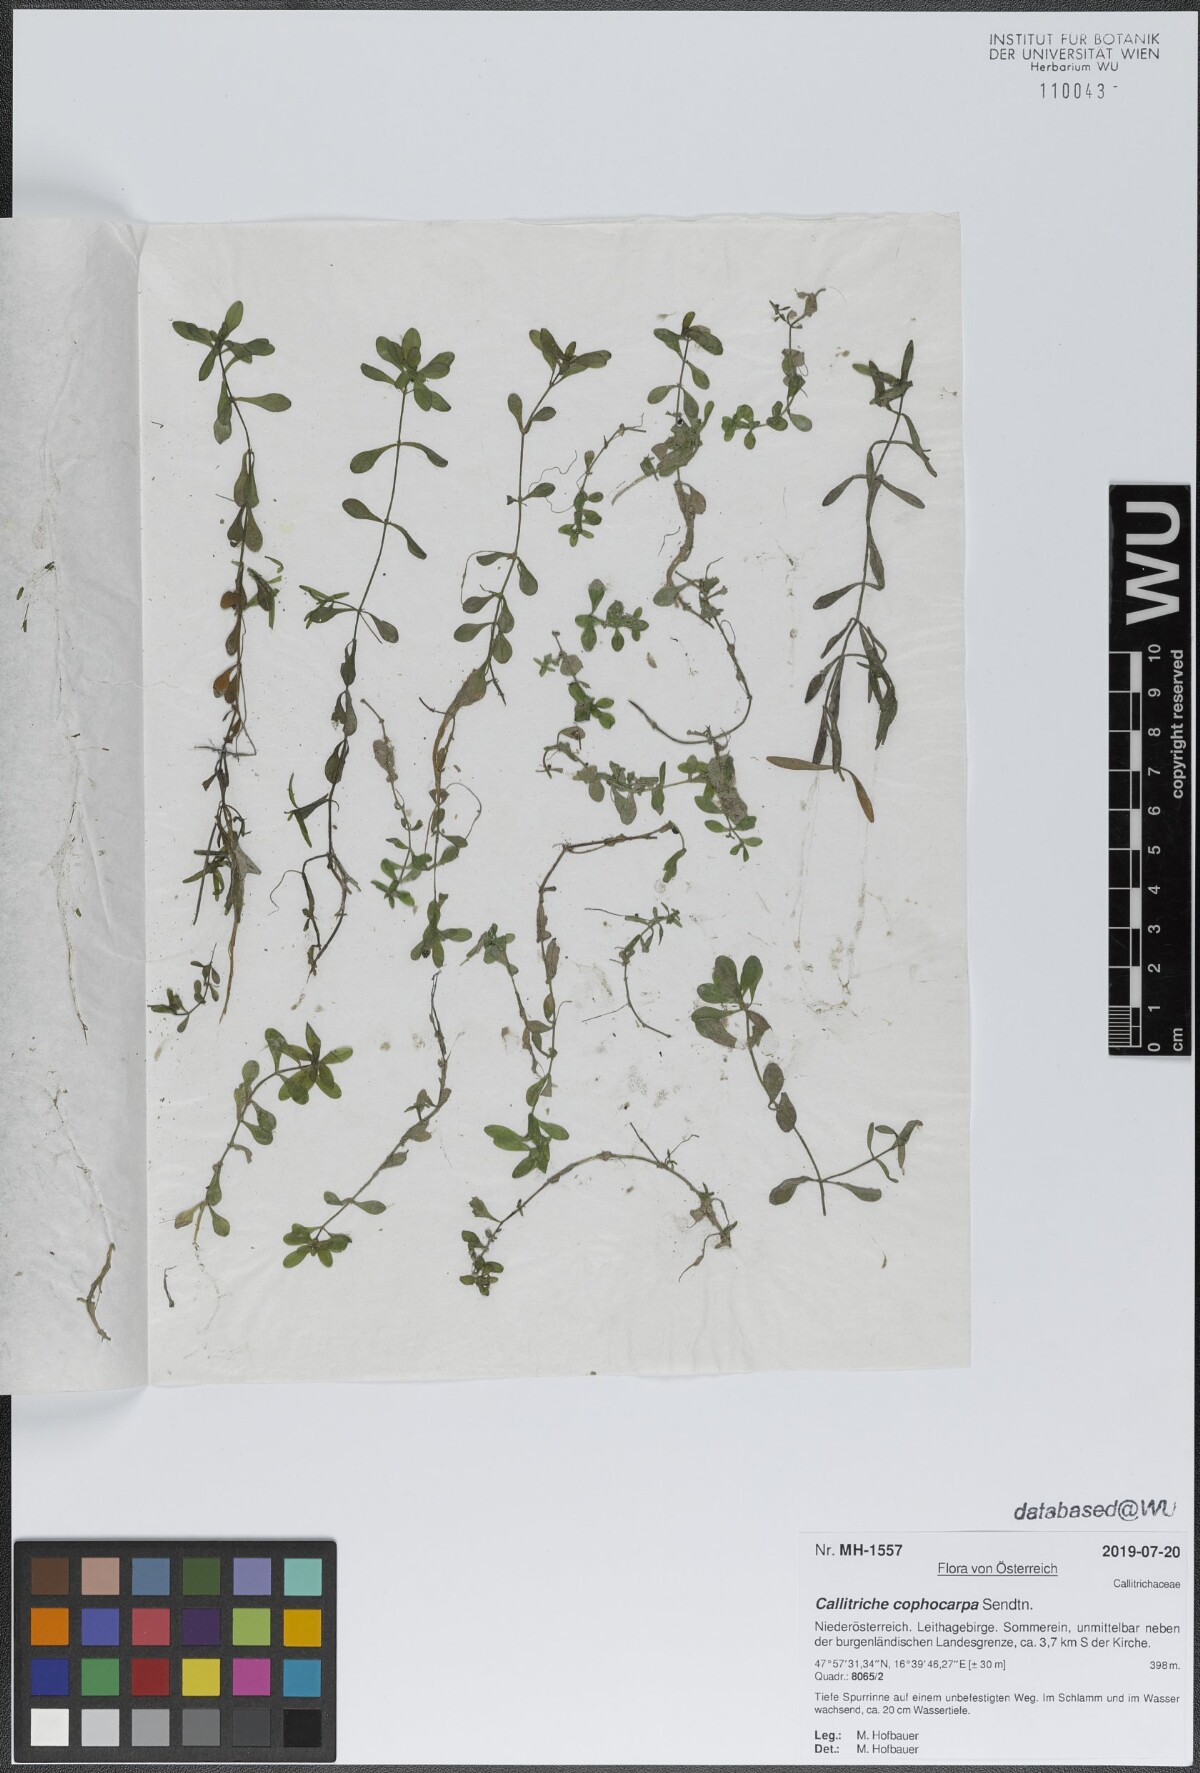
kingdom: Plantae
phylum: Tracheophyta
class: Magnoliopsida
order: Lamiales
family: Plantaginaceae
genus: Callitriche
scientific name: Callitriche cophocarpa
